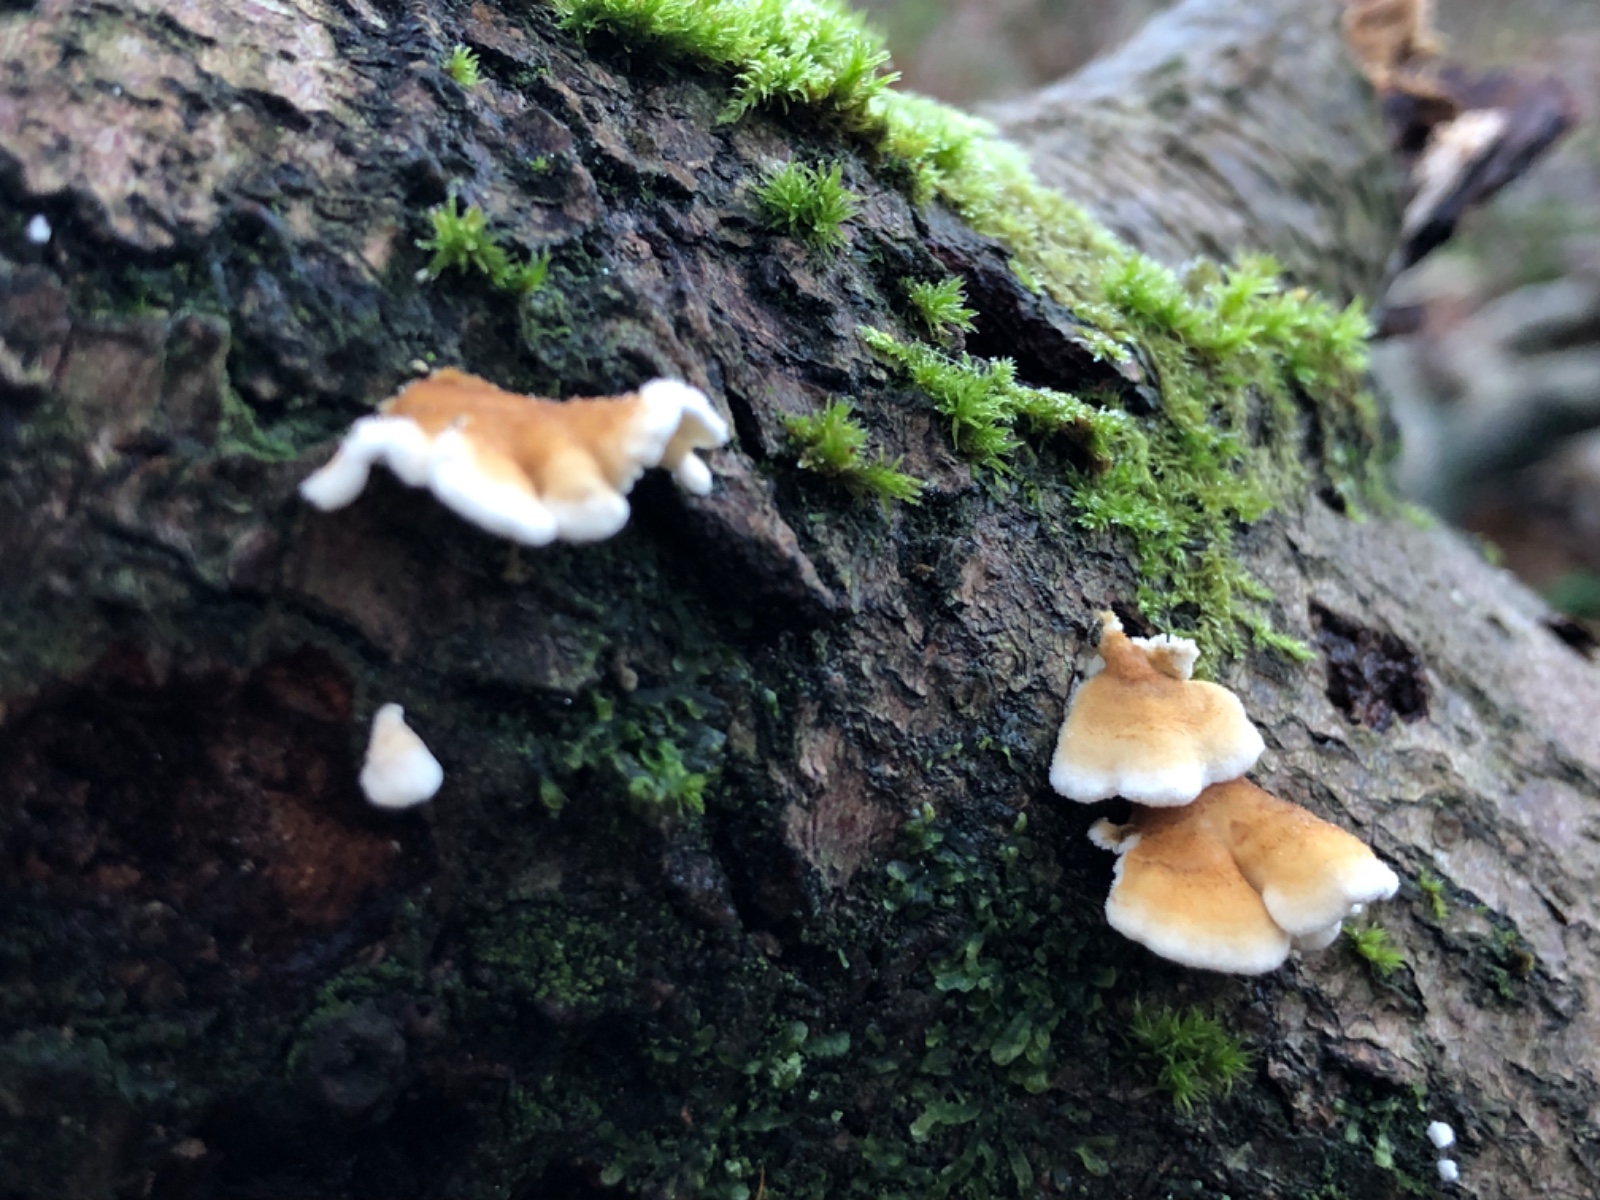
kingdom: Fungi
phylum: Basidiomycota
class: Agaricomycetes
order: Amylocorticiales
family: Amylocorticiaceae
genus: Plicaturopsis
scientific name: Plicaturopsis crispa
